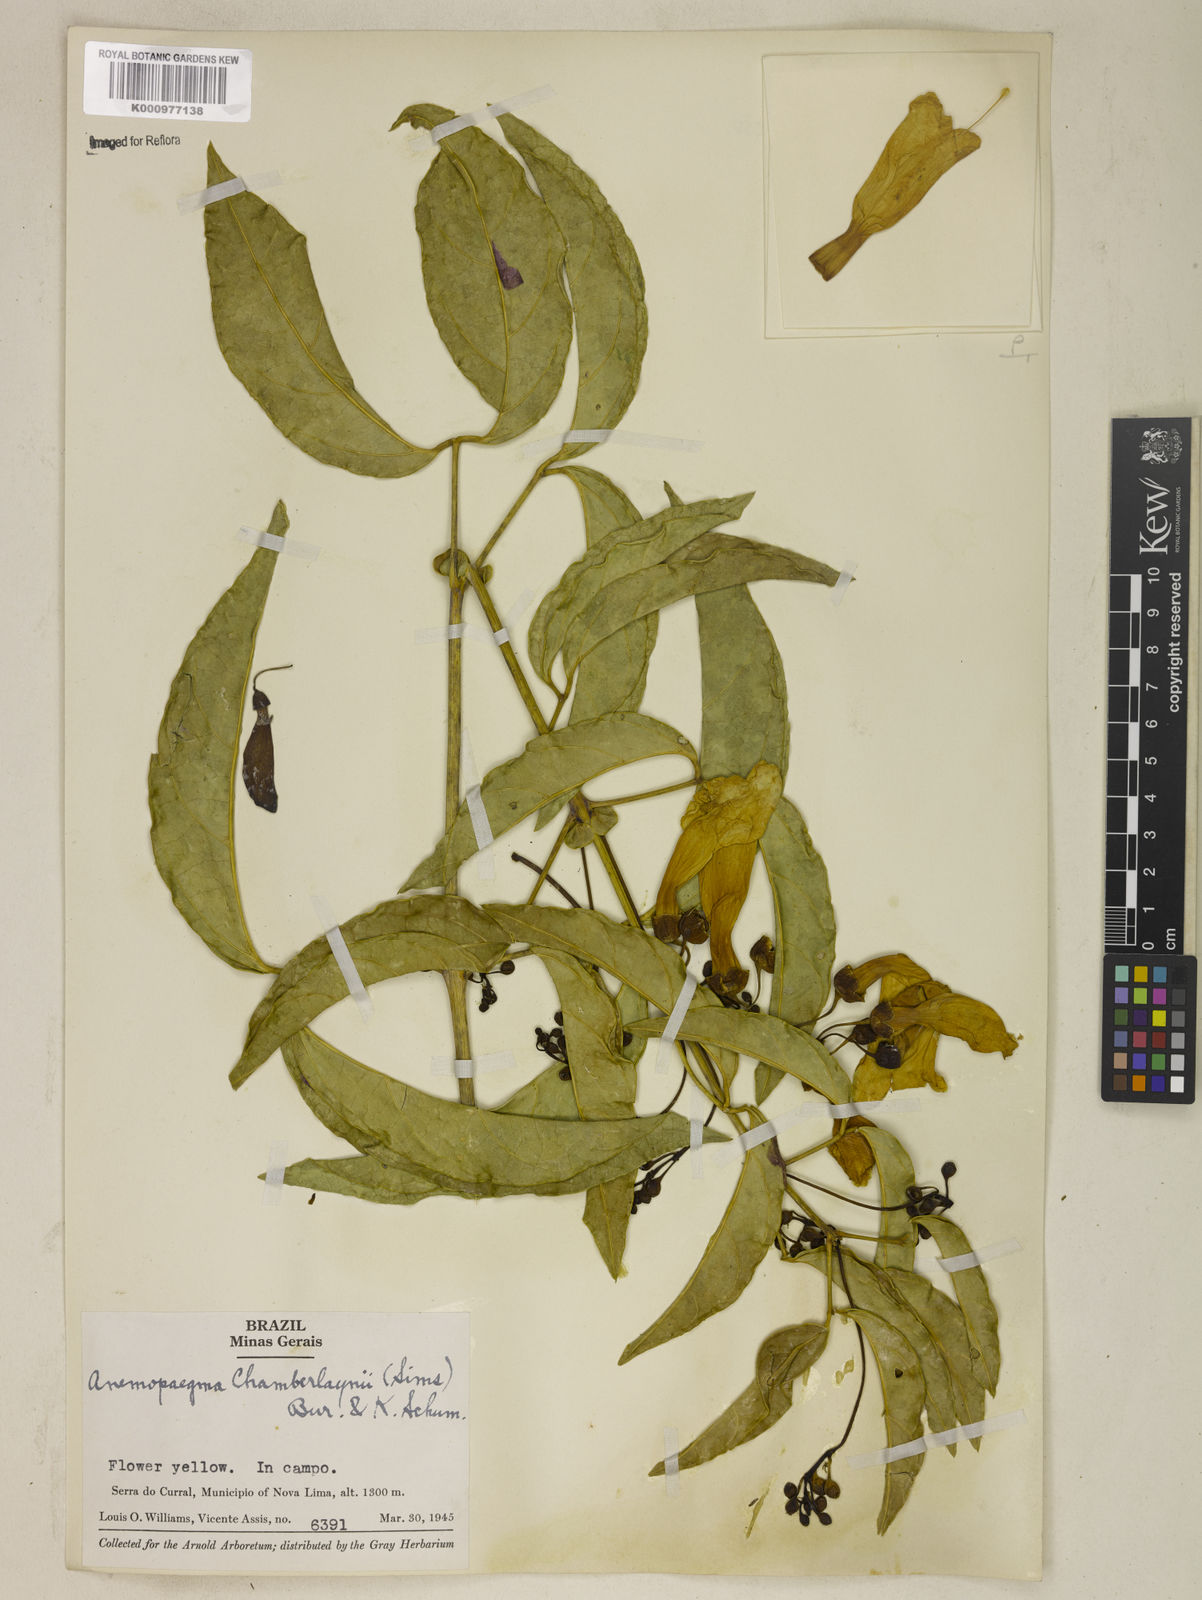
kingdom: Plantae
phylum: Tracheophyta
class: Magnoliopsida
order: Lamiales
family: Bignoniaceae
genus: Anemopaegma
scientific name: Anemopaegma chamberlaynii
